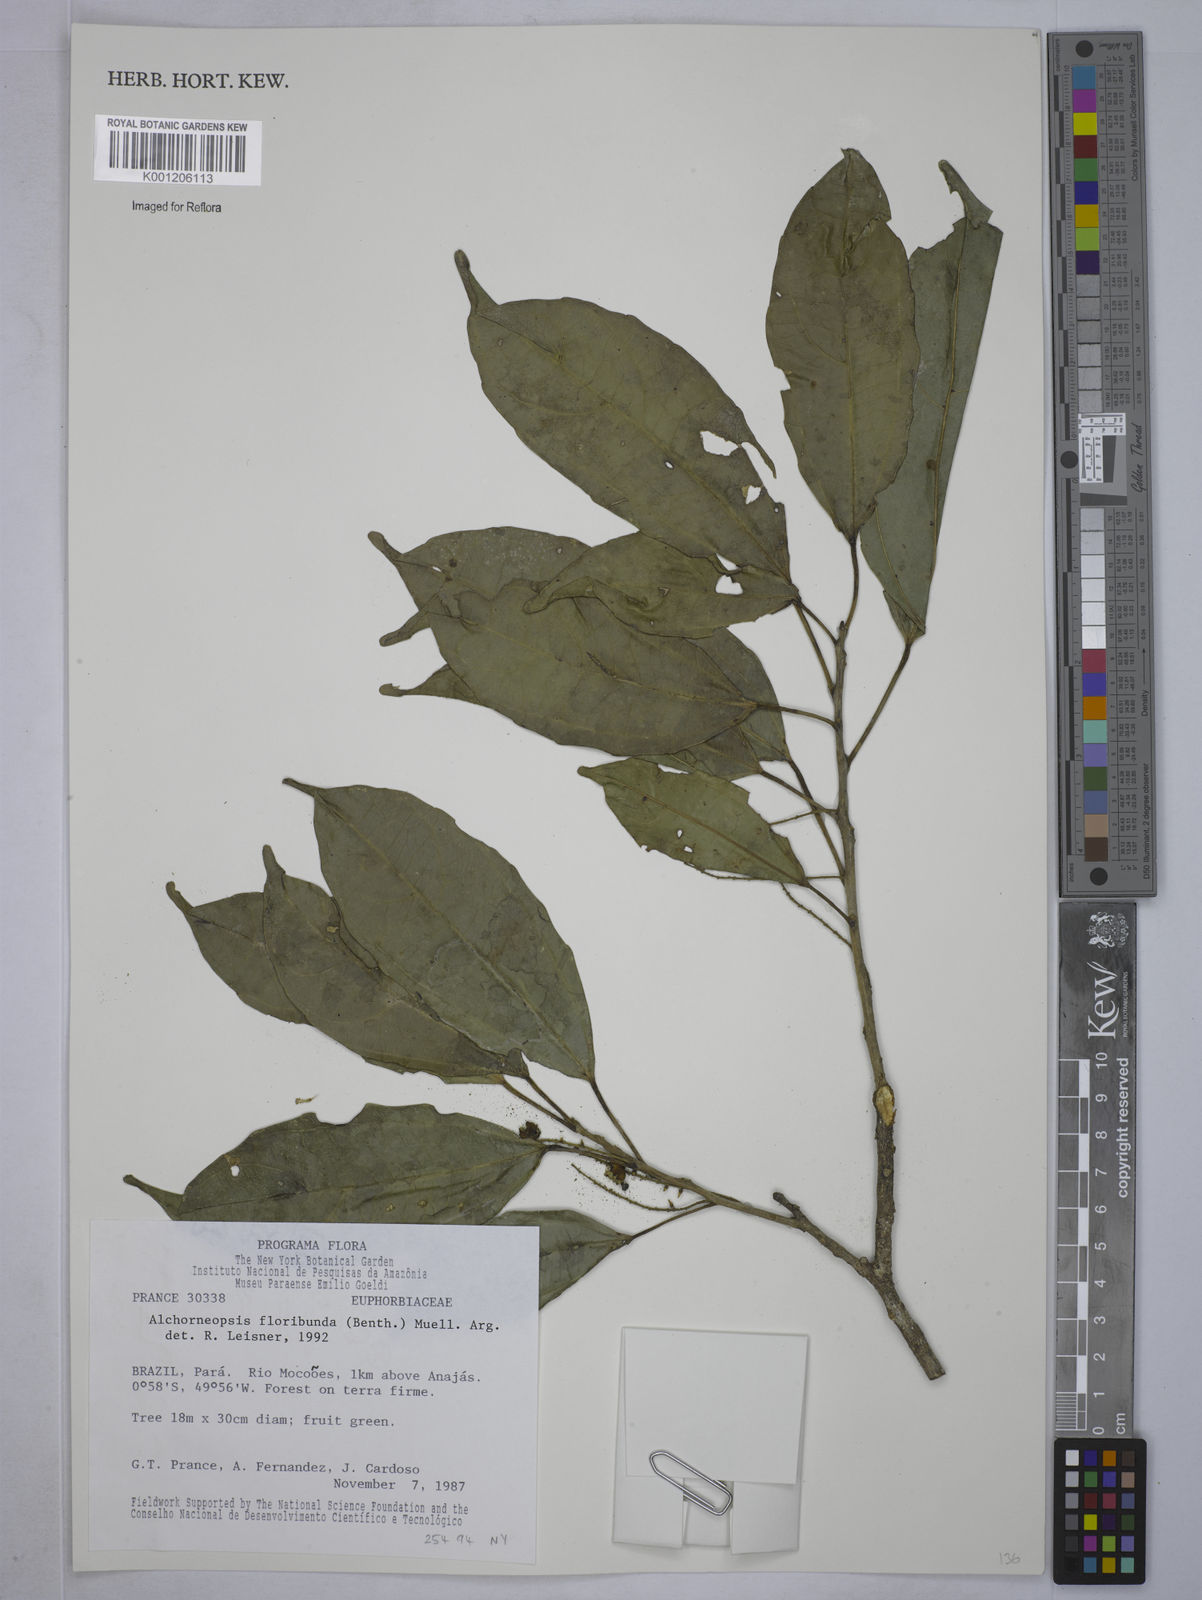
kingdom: Plantae
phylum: Tracheophyta
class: Magnoliopsida
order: Malpighiales
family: Euphorbiaceae
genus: Alchorneopsis
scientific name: Alchorneopsis
